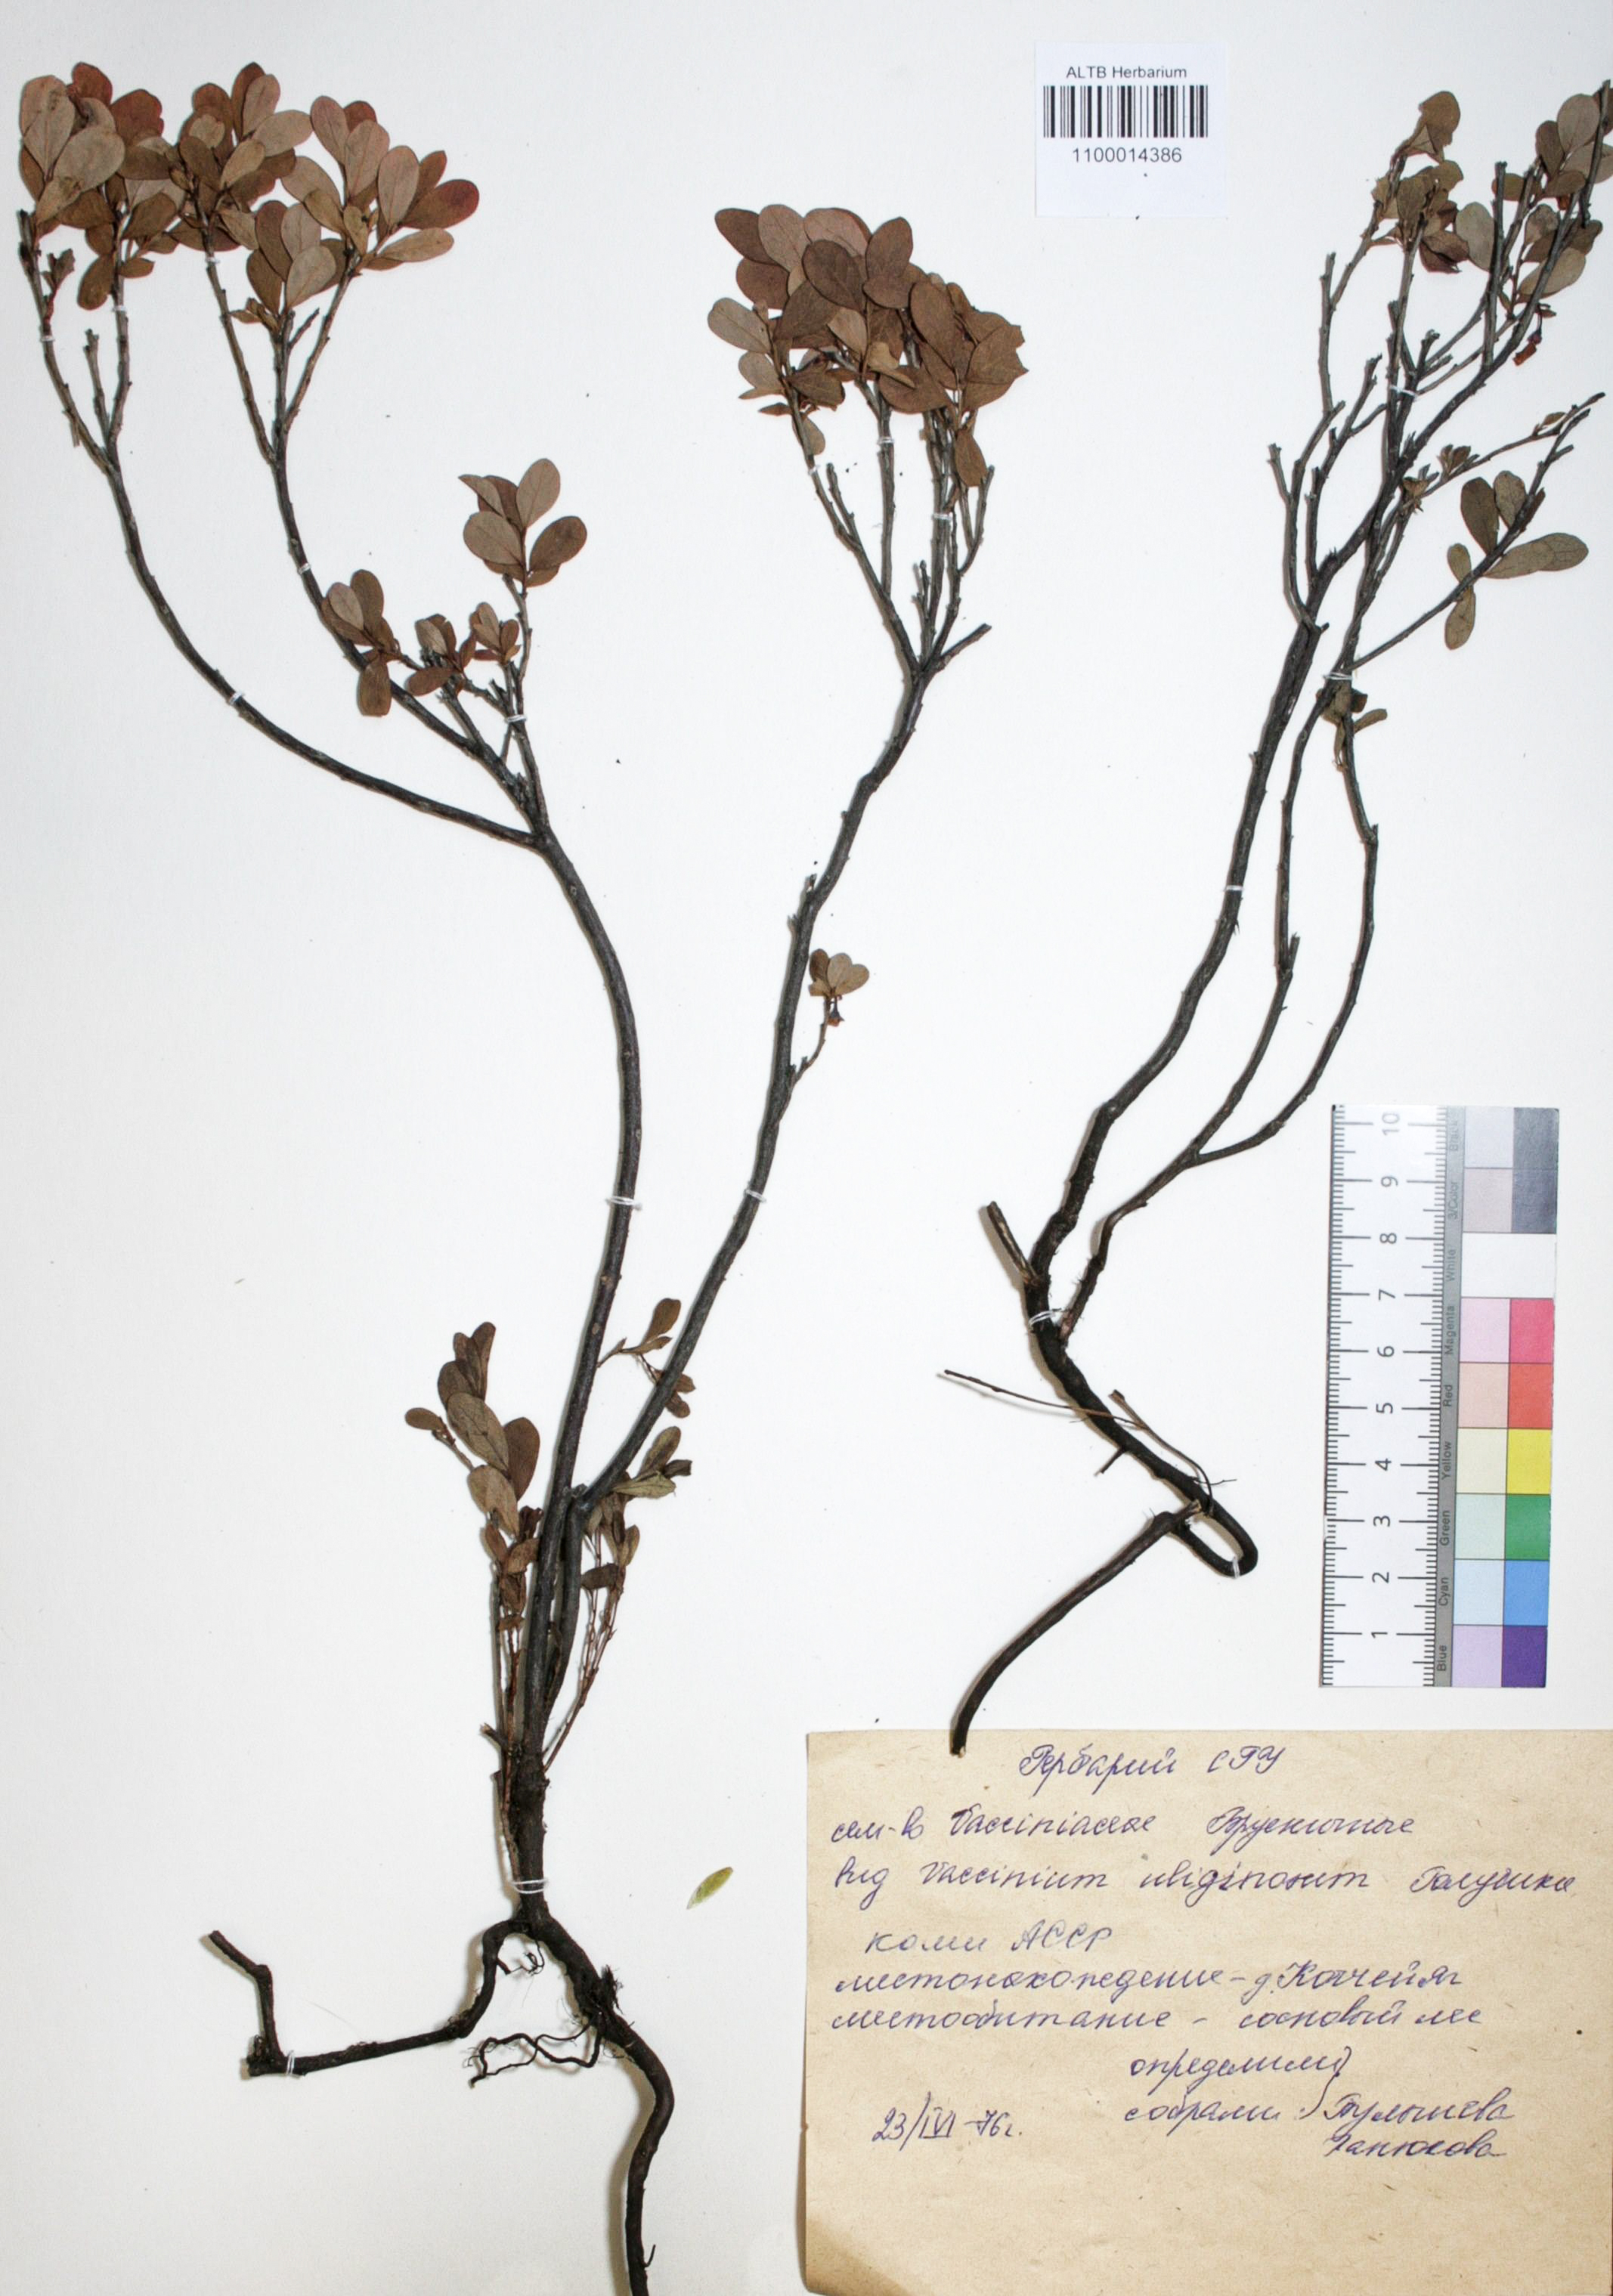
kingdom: Plantae
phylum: Tracheophyta
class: Magnoliopsida
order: Ericales
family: Ericaceae
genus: Vaccinium
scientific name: Vaccinium uliginosum
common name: Bog bilberry
